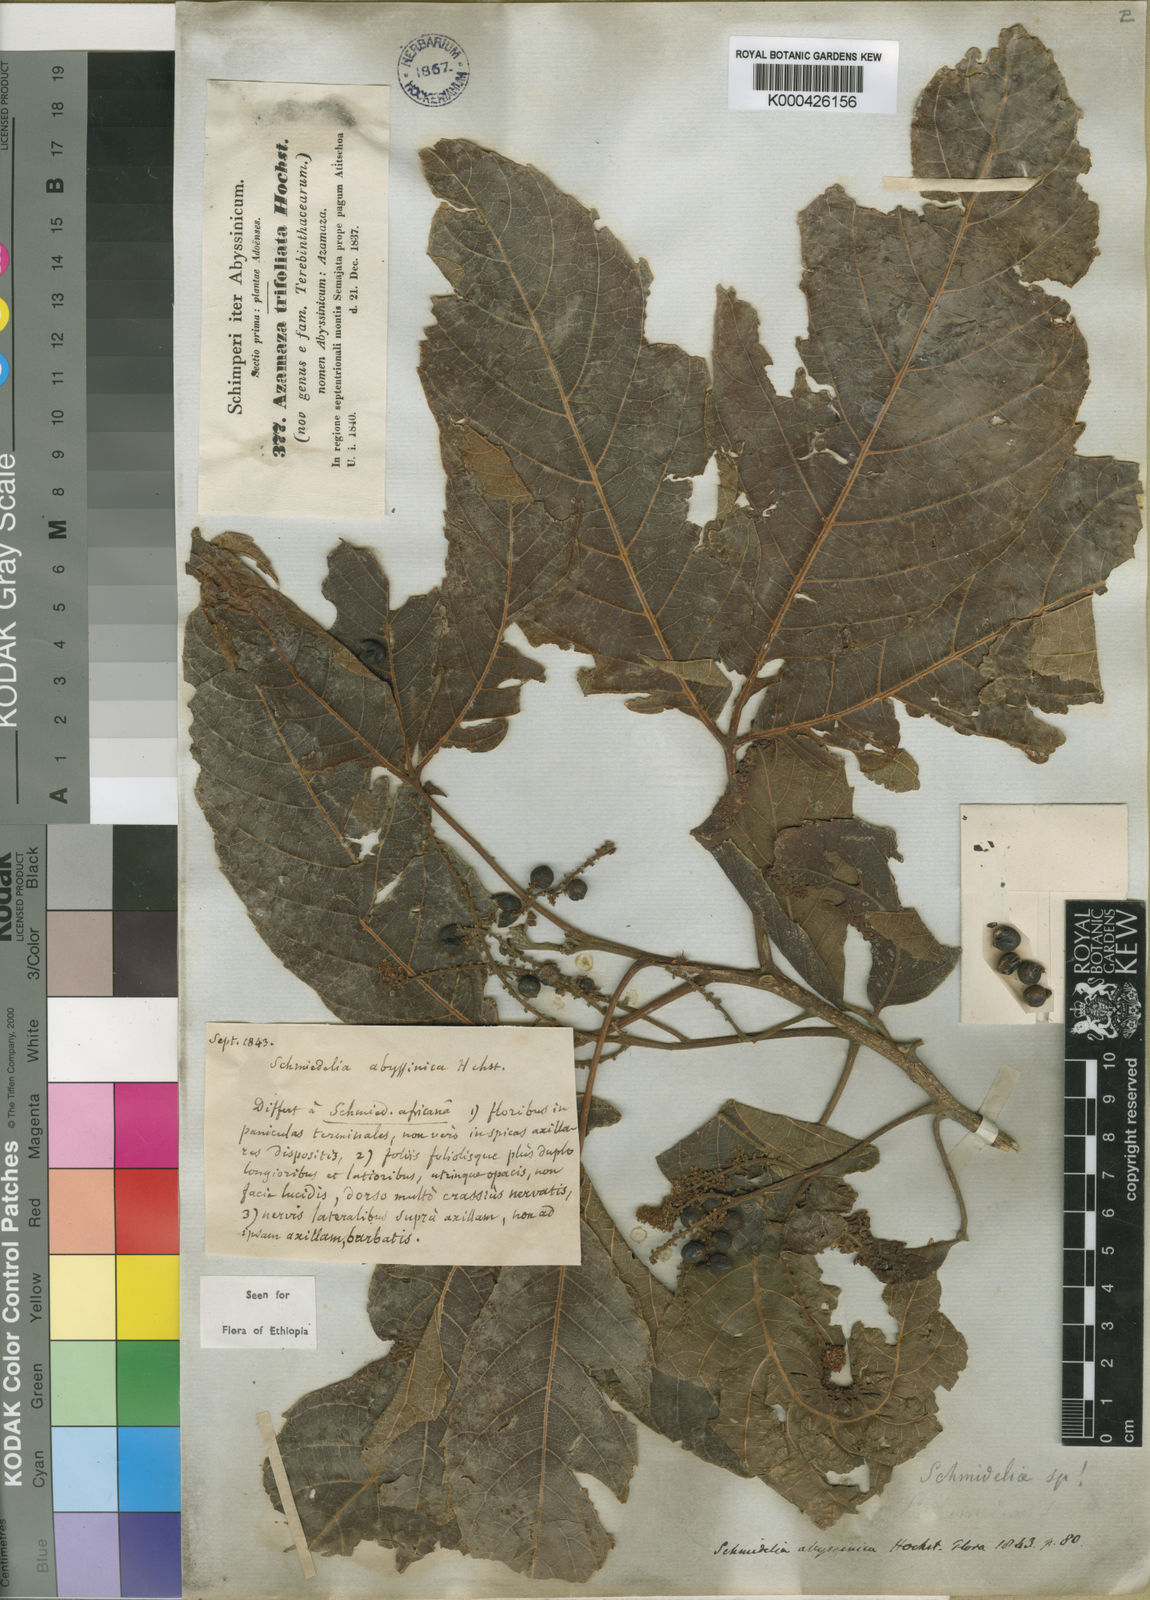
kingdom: Plantae
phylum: Tracheophyta
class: Magnoliopsida
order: Sapindales
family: Sapindaceae
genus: Allophylus
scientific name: Allophylus abyssinicus
